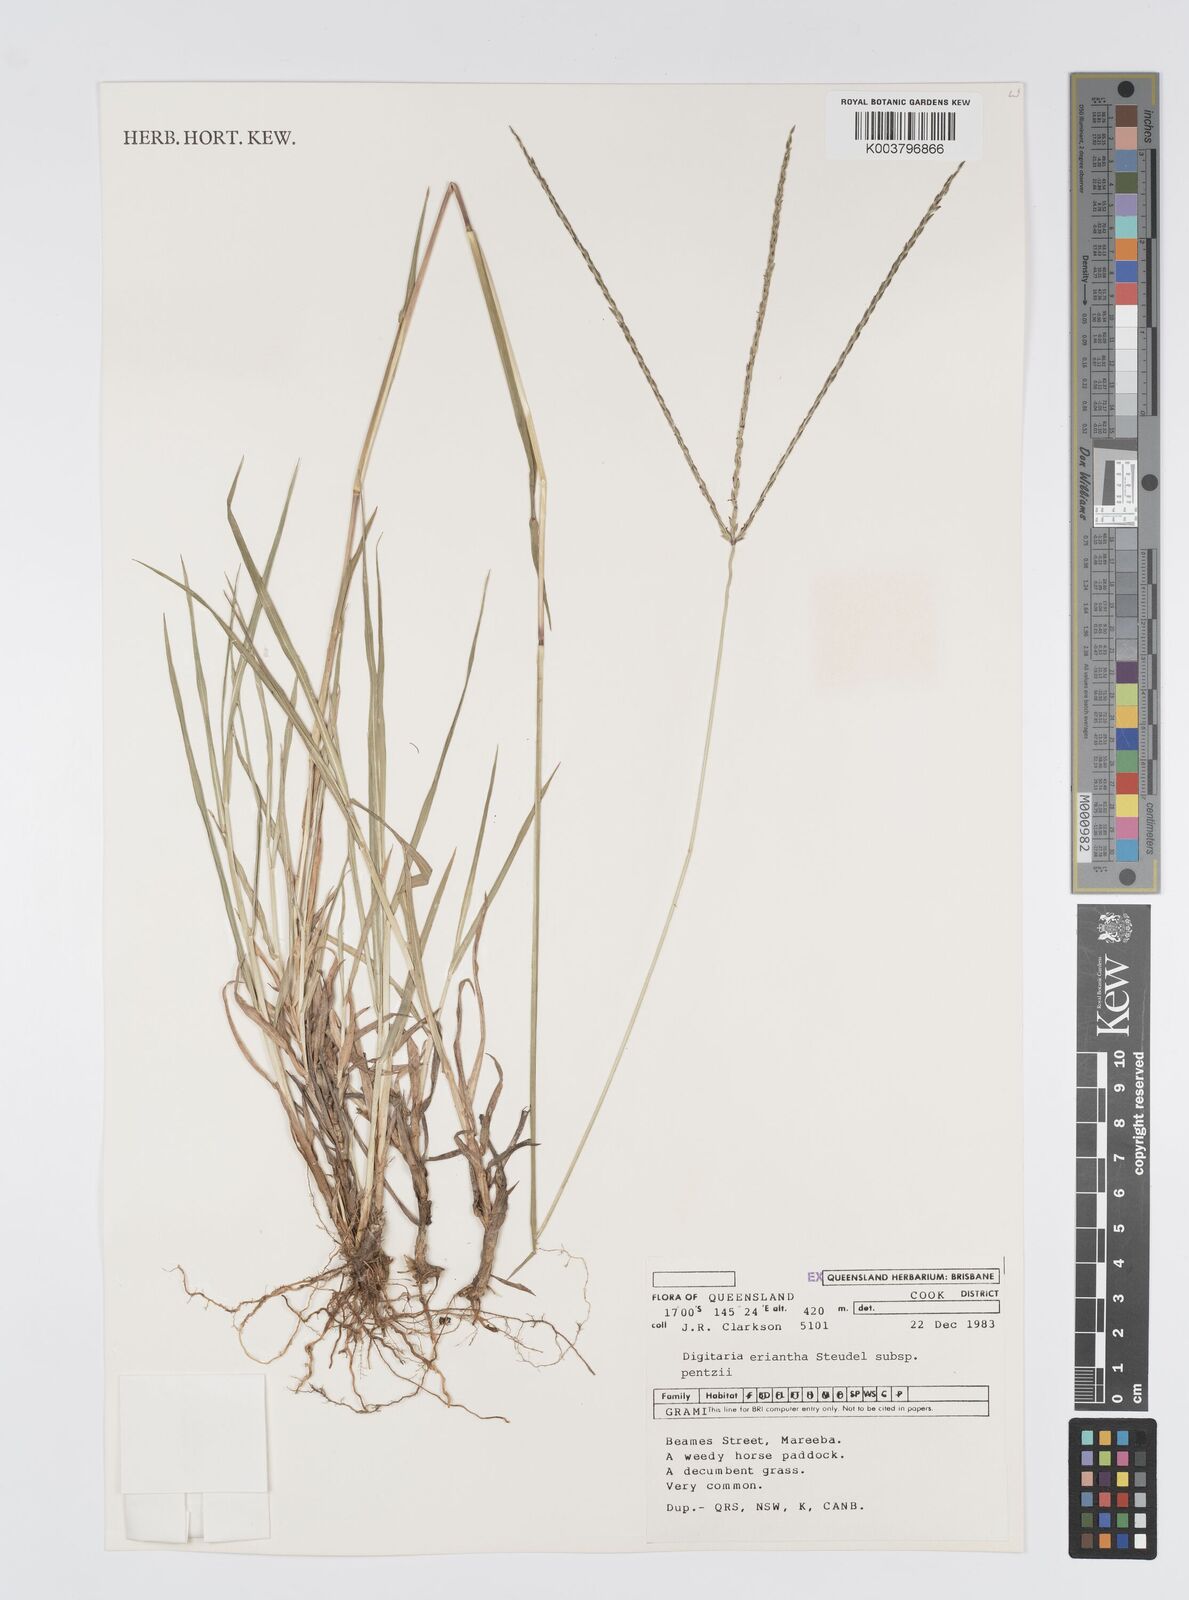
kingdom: Plantae
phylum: Tracheophyta
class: Liliopsida
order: Poales
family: Poaceae
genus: Digitaria
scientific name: Digitaria eriantha
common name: Digitgrass
